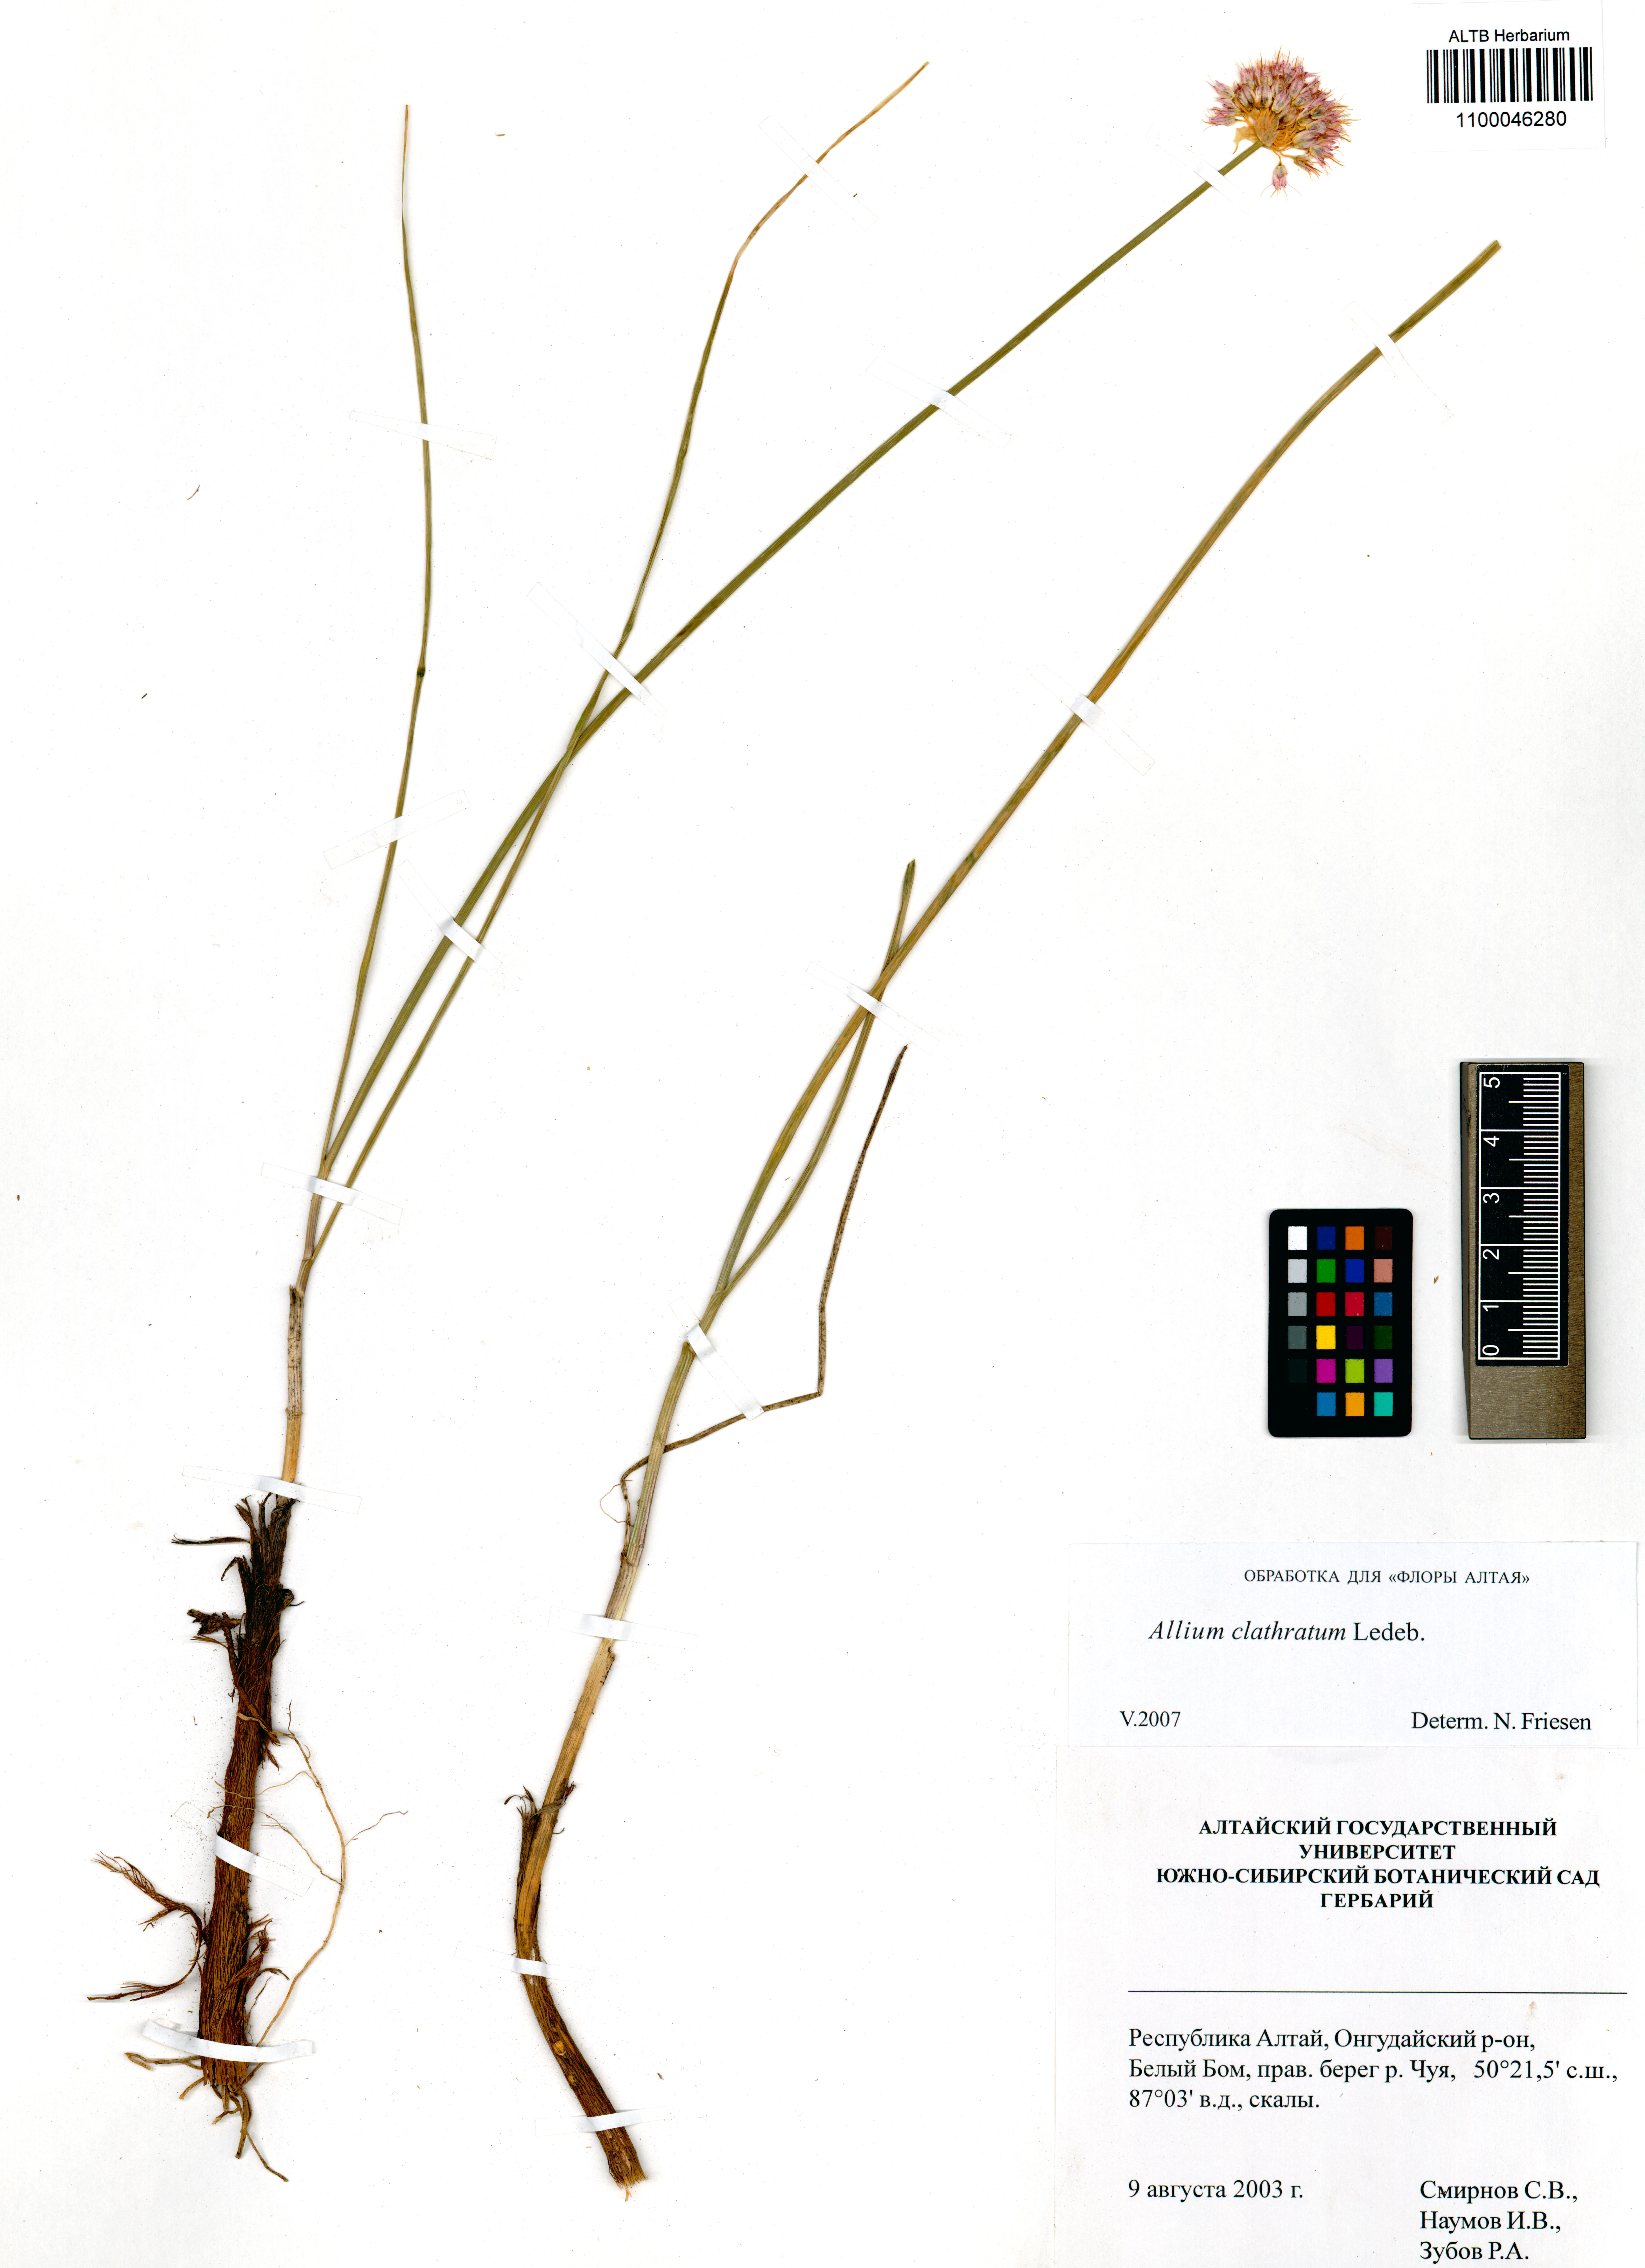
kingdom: Plantae
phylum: Tracheophyta
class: Liliopsida
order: Asparagales
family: Amaryllidaceae
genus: Allium
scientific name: Allium clathratum
